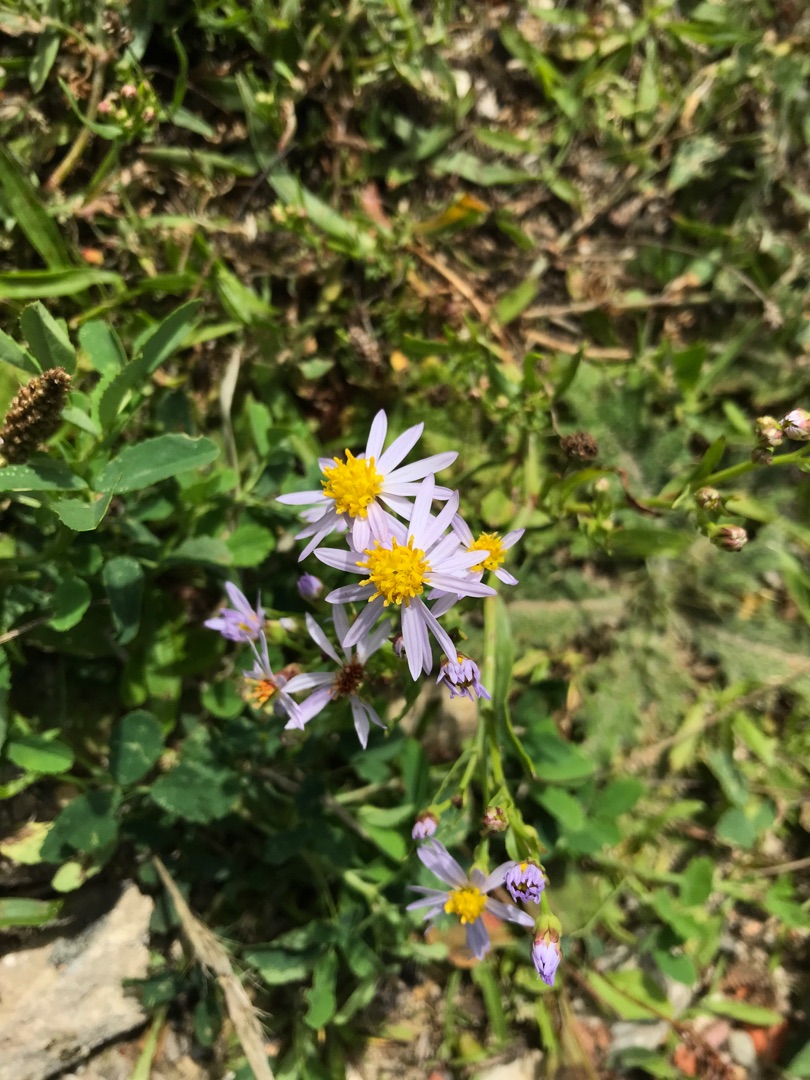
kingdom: Plantae
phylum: Tracheophyta
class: Magnoliopsida
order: Asterales
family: Asteraceae
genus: Tripolium
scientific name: Tripolium pannonicum
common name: Strandasters
